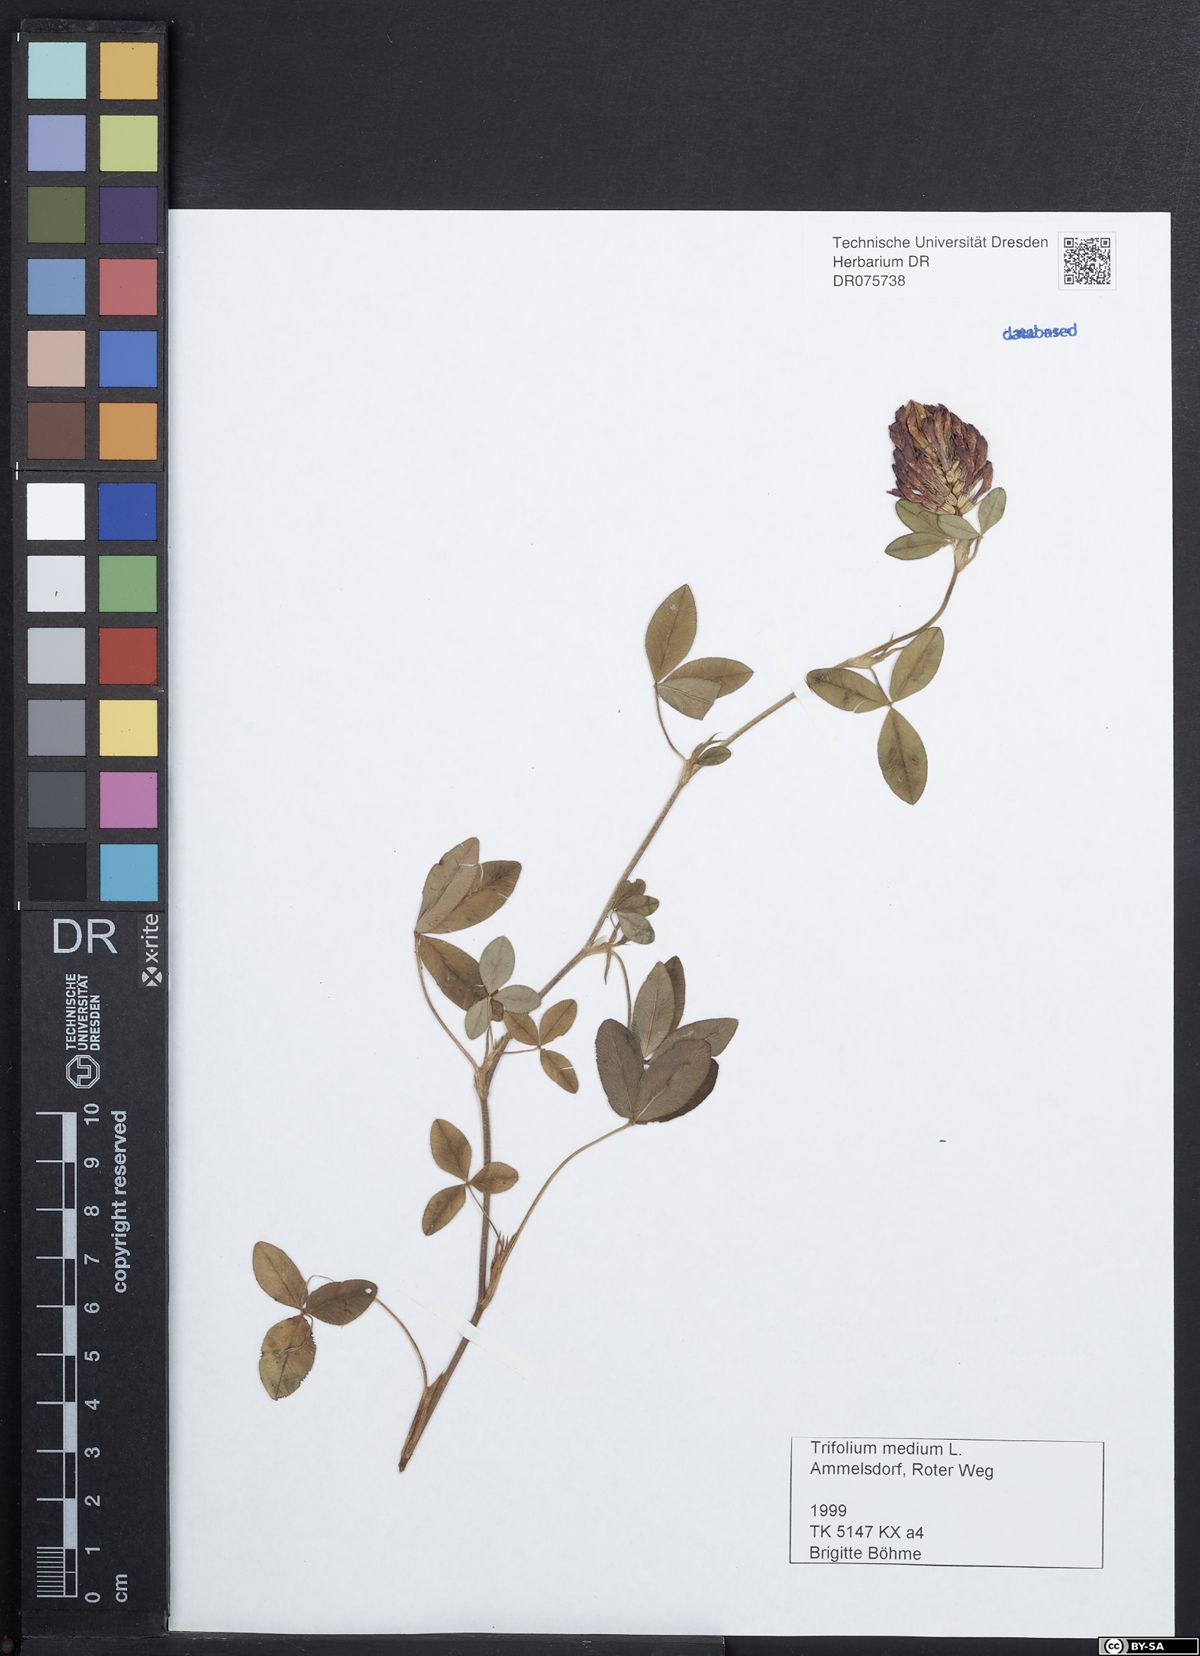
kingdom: Plantae
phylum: Tracheophyta
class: Magnoliopsida
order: Fabales
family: Fabaceae
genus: Trifolium
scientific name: Trifolium medium
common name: Zigzag clover
